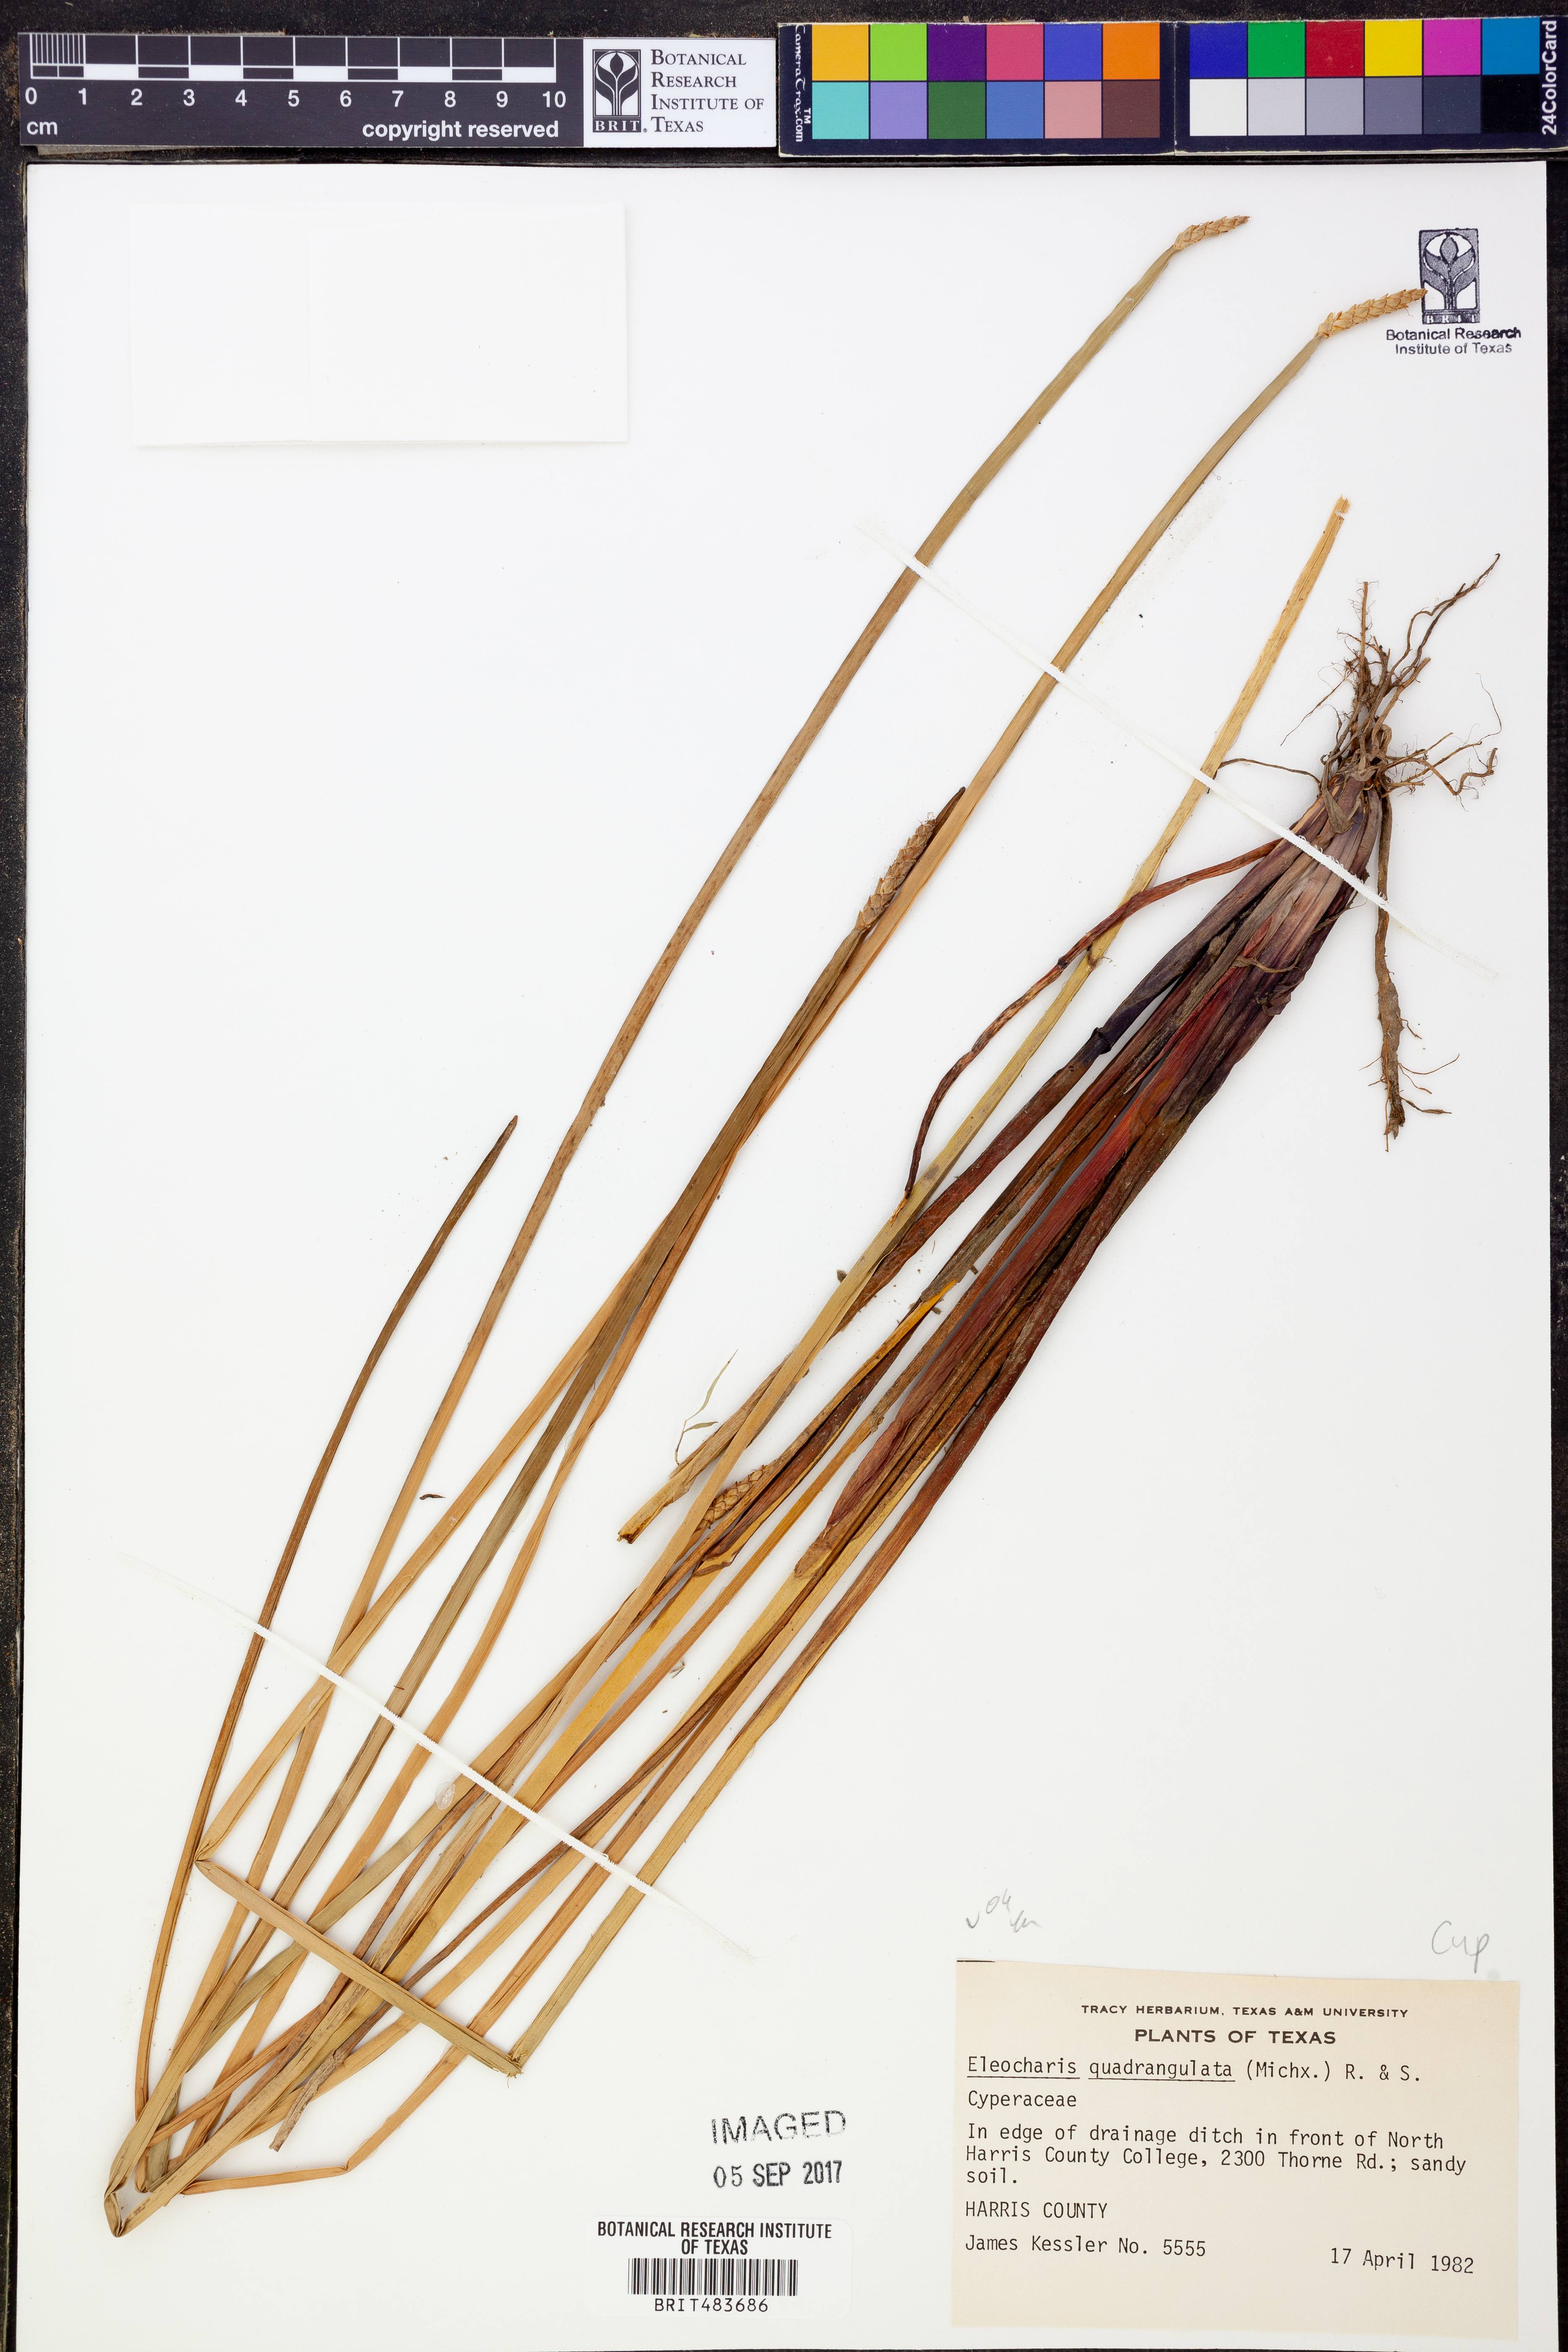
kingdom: Plantae
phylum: Tracheophyta
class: Liliopsida
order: Poales
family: Cyperaceae
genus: Eleocharis
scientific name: Eleocharis quadrangulata
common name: Square-stem spike-rush
